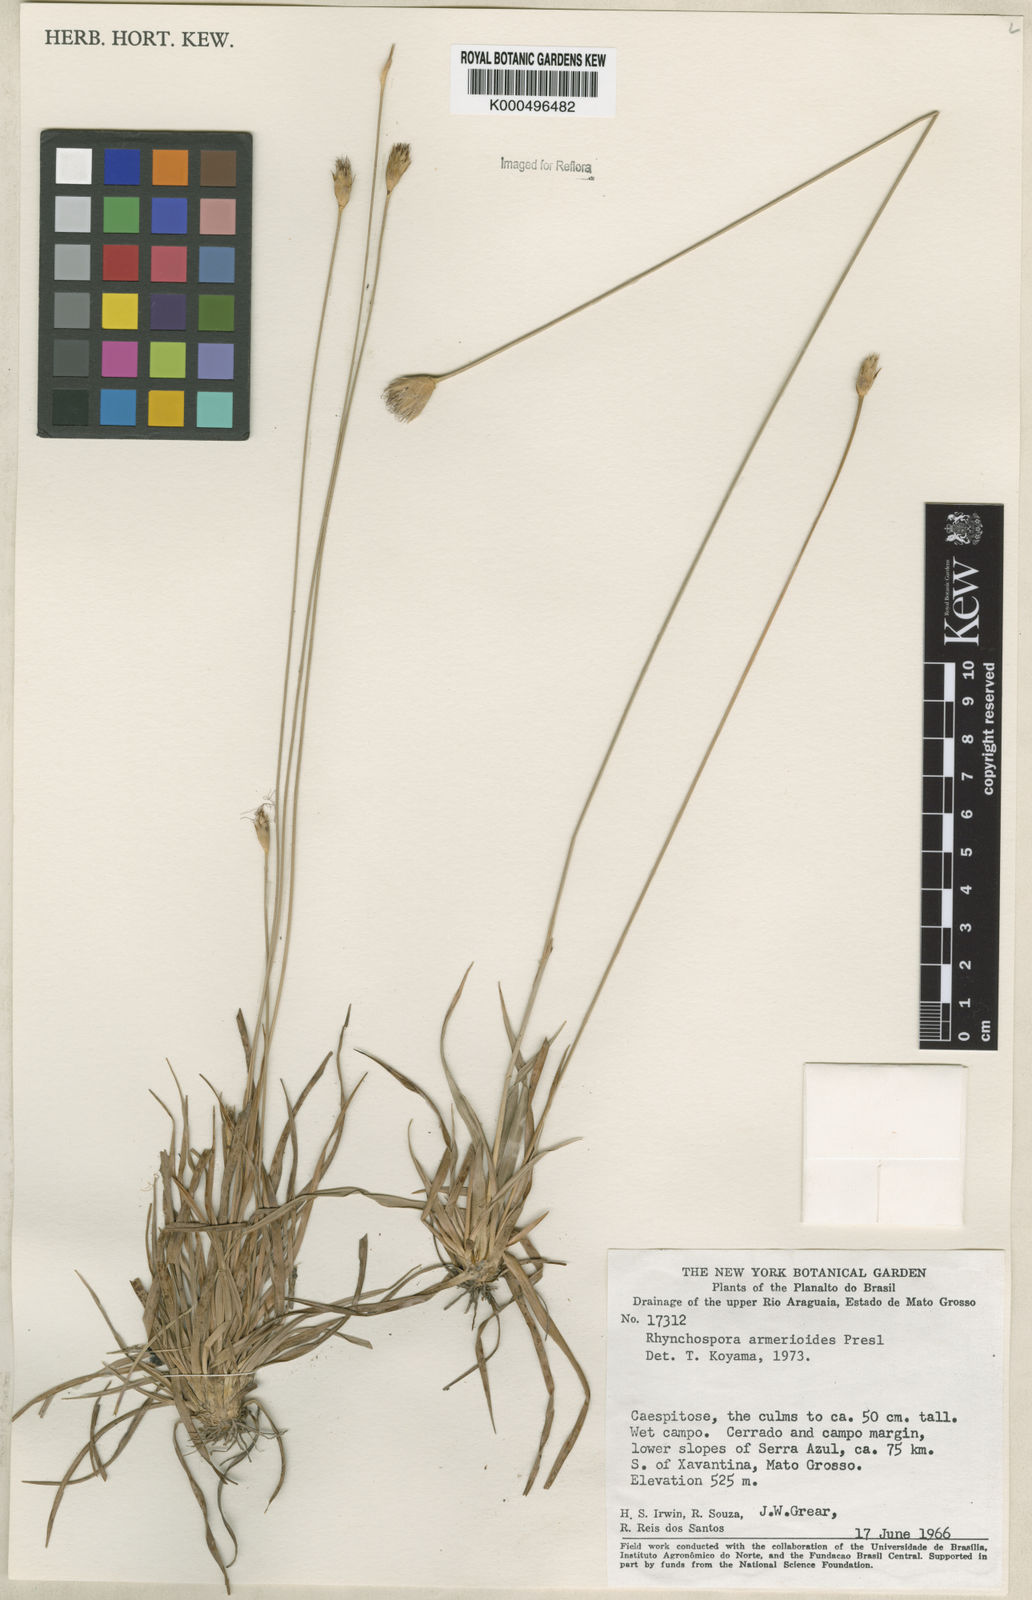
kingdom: Plantae
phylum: Tracheophyta
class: Liliopsida
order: Poales
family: Cyperaceae
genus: Rhynchospora
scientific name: Rhynchospora armerioides
